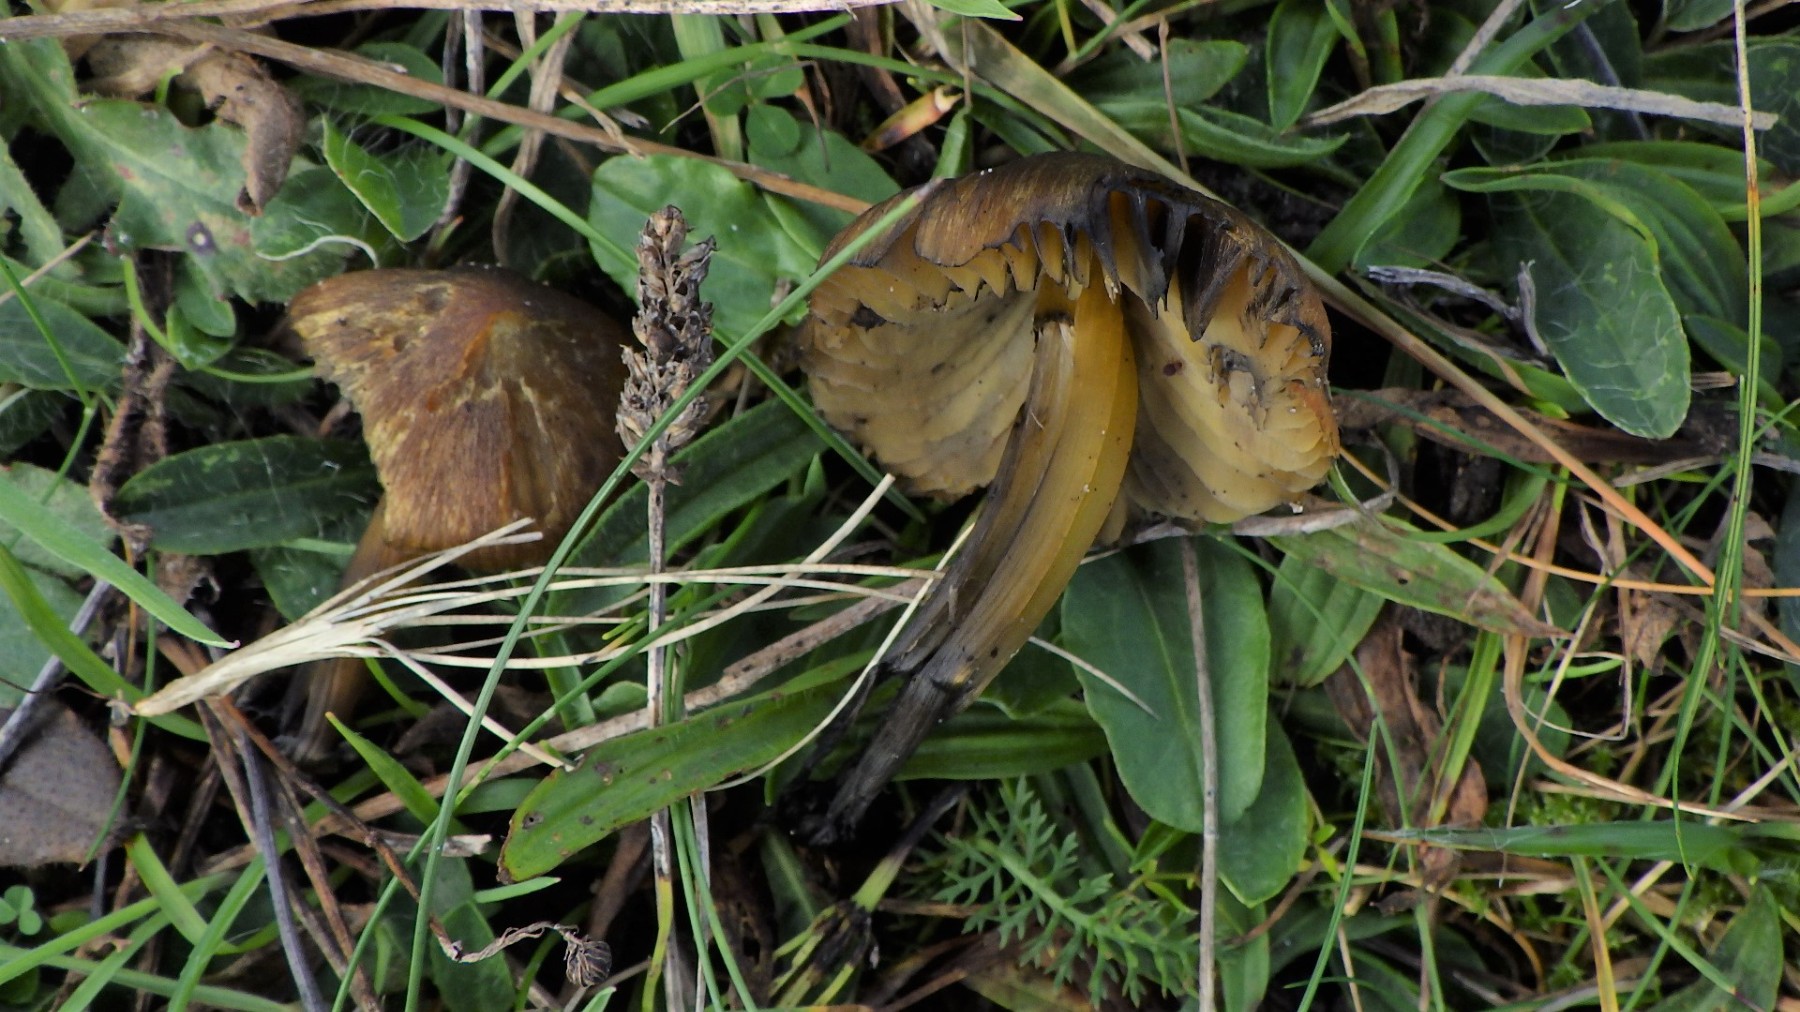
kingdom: Fungi
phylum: Basidiomycota
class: Agaricomycetes
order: Agaricales
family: Hygrophoraceae
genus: Hygrocybe
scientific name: Hygrocybe conica
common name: kegle-vokshat
